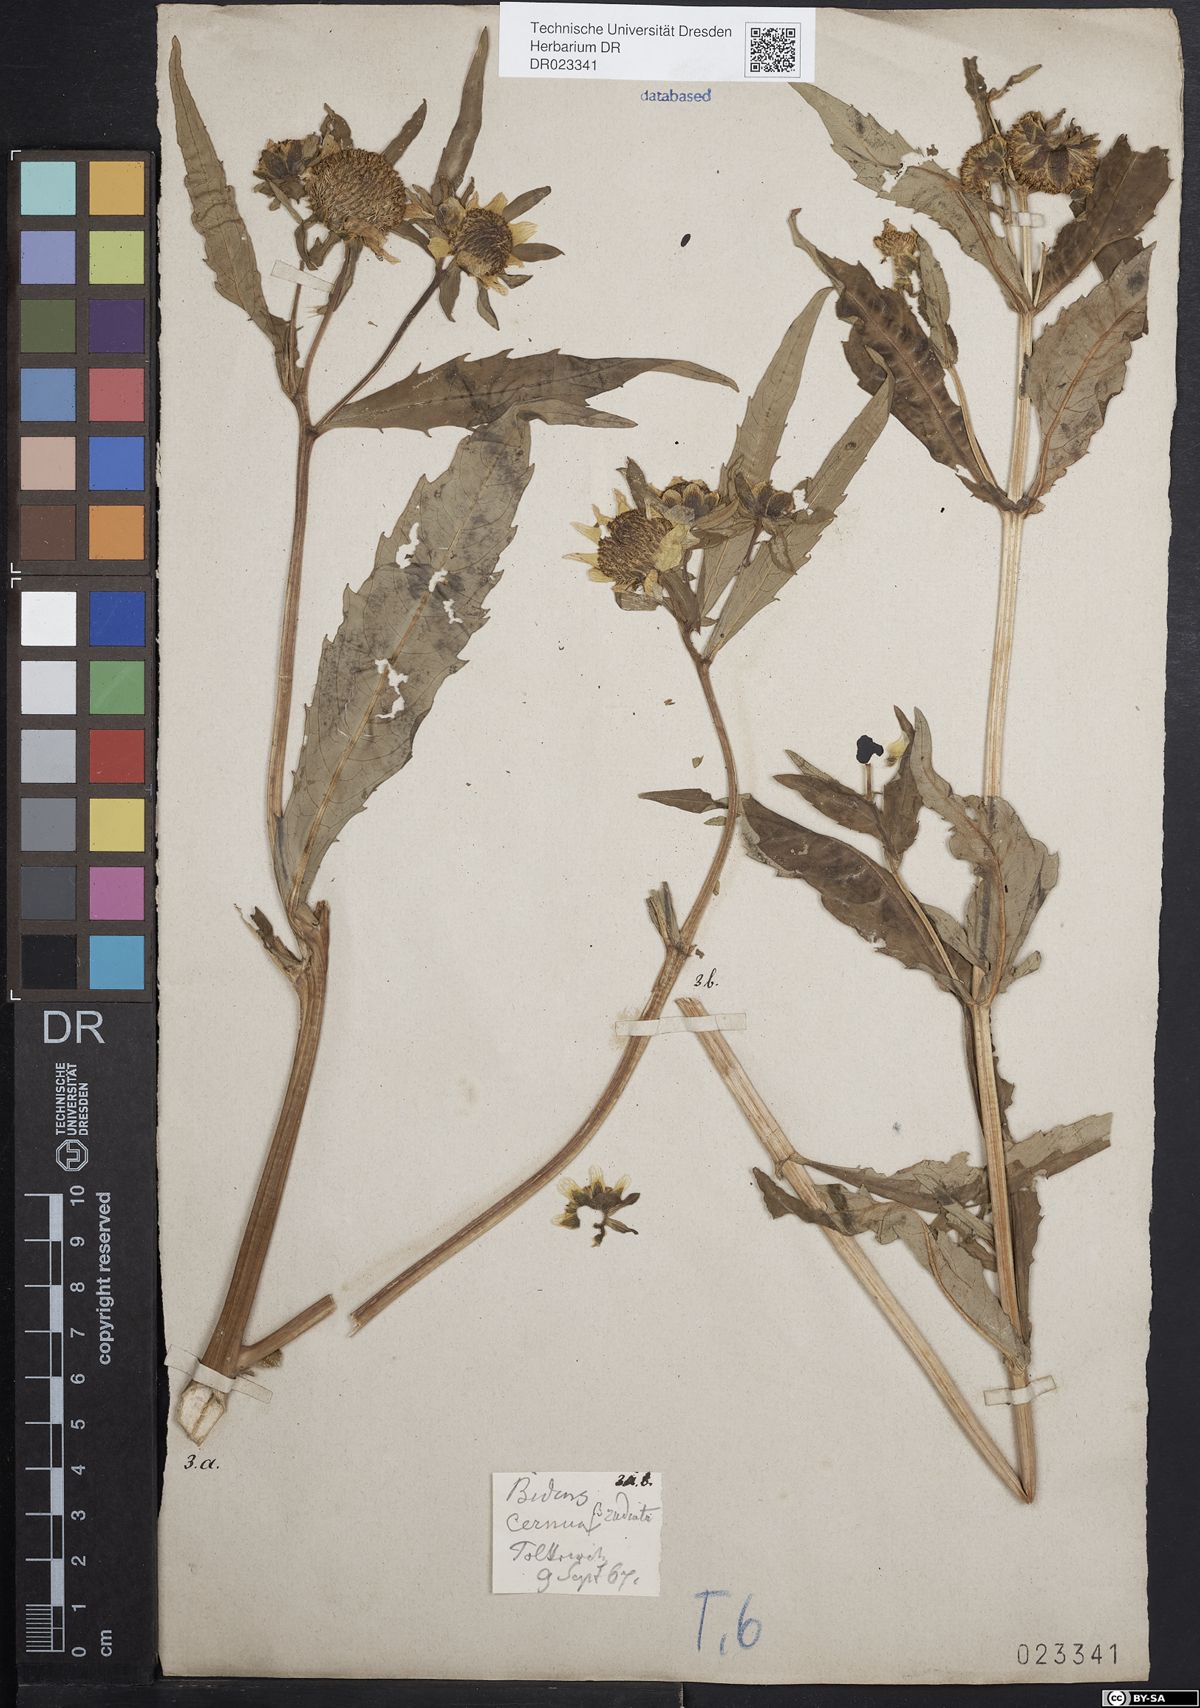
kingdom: Plantae
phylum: Tracheophyta
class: Magnoliopsida
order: Asterales
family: Asteraceae
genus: Bidens
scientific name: Bidens cernua
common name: Nodding bur-marigold
